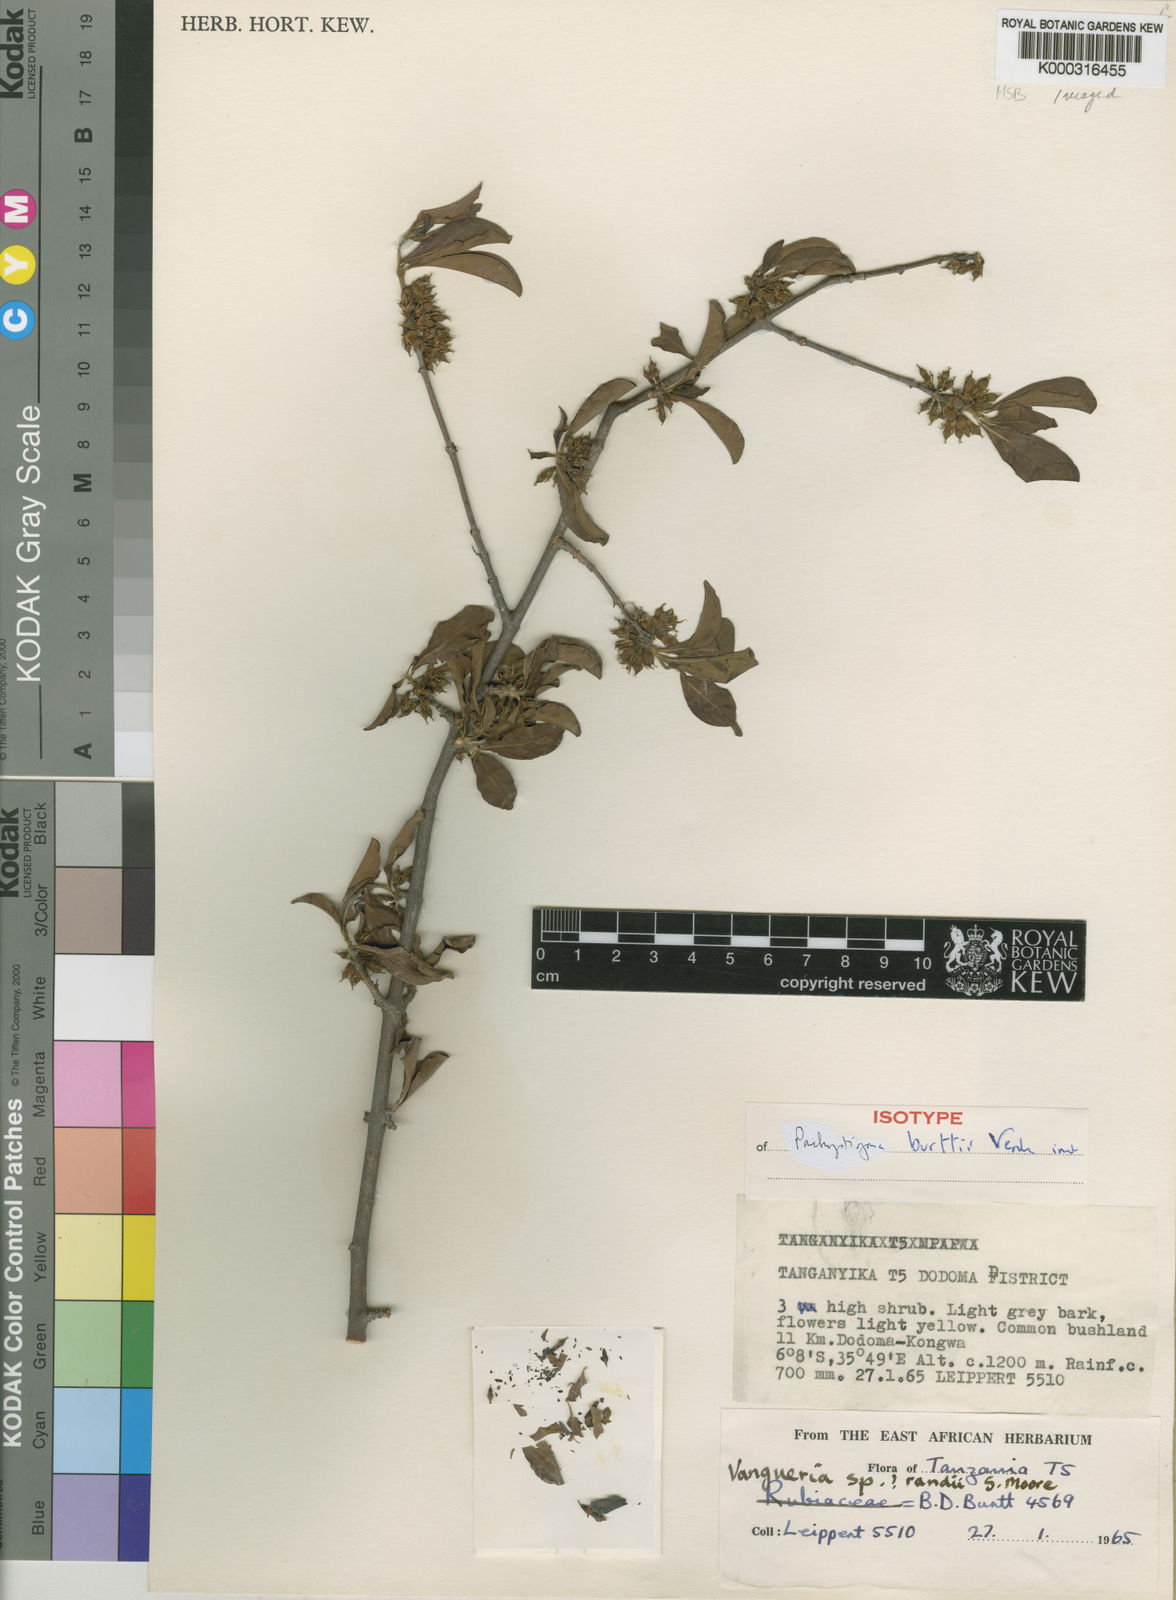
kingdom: Plantae
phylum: Tracheophyta
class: Magnoliopsida
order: Gentianales
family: Rubiaceae
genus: Vangueria
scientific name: Vangueria burttii
